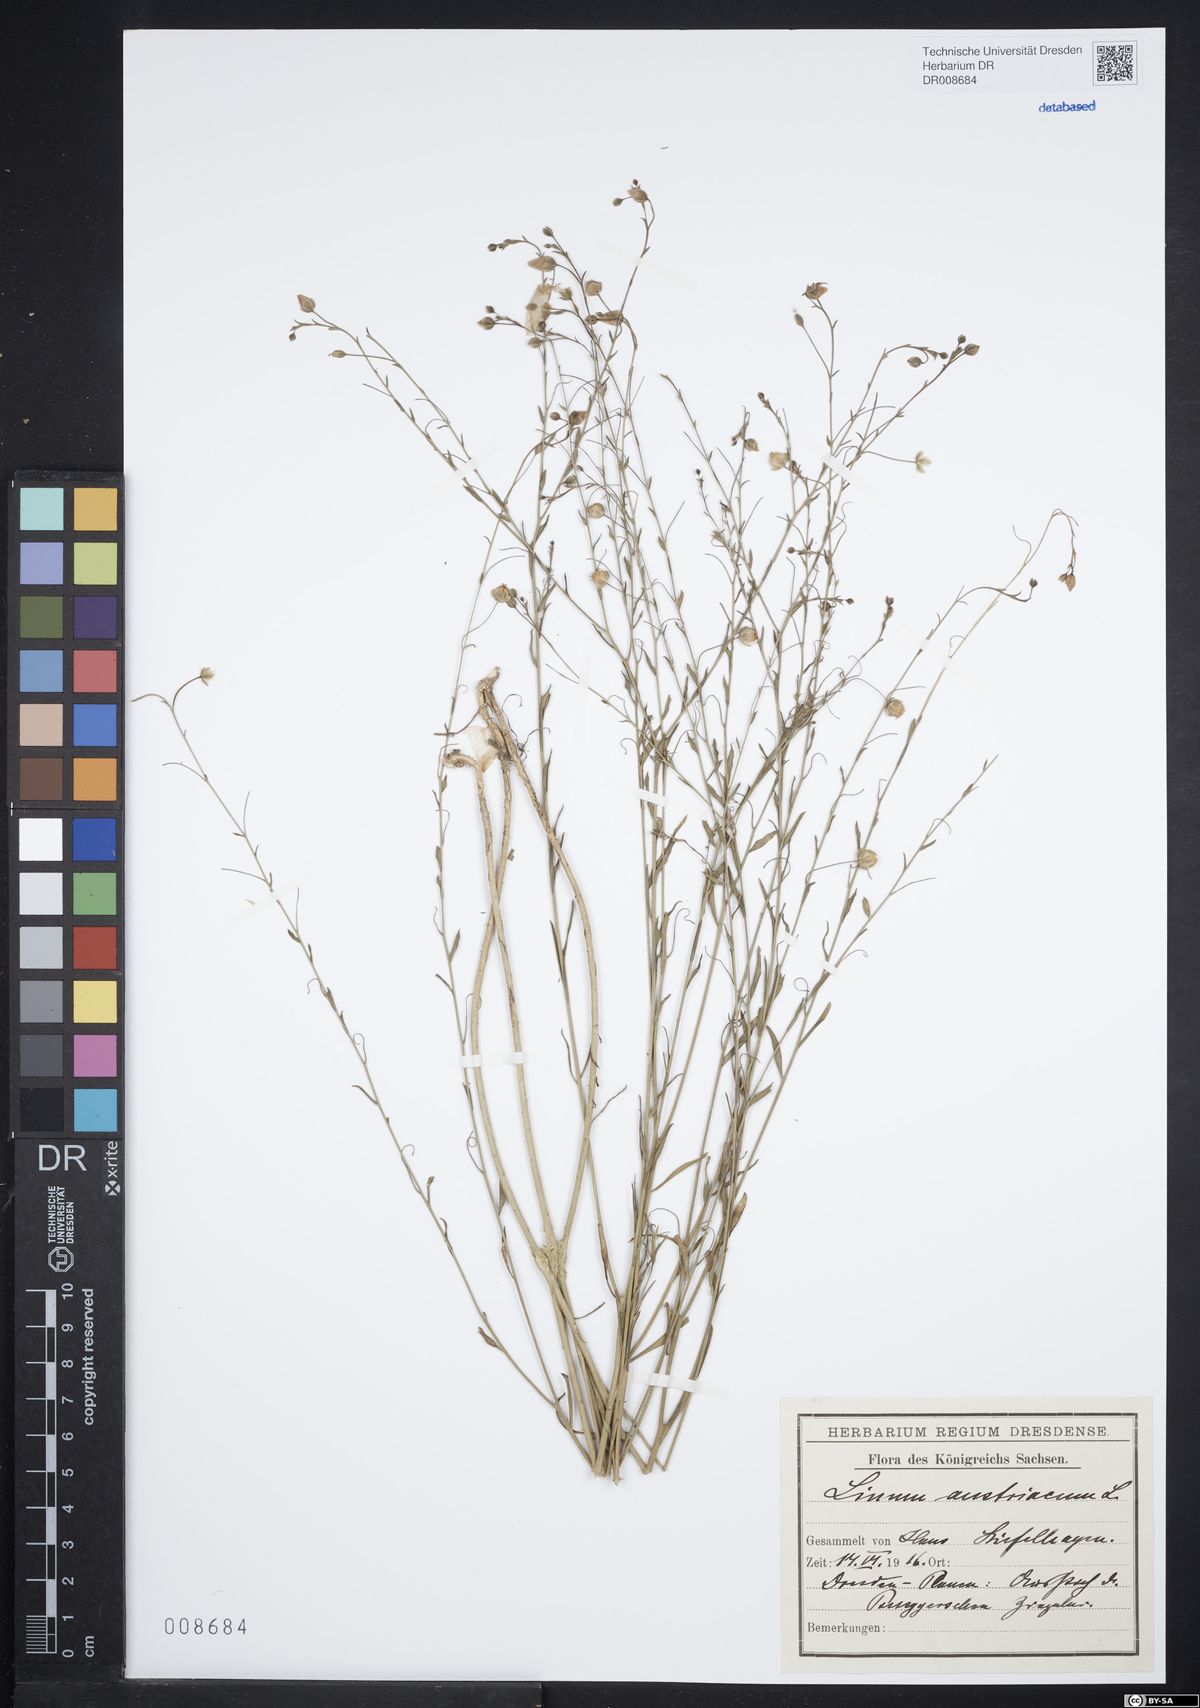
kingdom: Plantae
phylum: Tracheophyta
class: Magnoliopsida
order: Malpighiales
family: Linaceae
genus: Linum
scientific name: Linum austriacum
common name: Austrian flax
